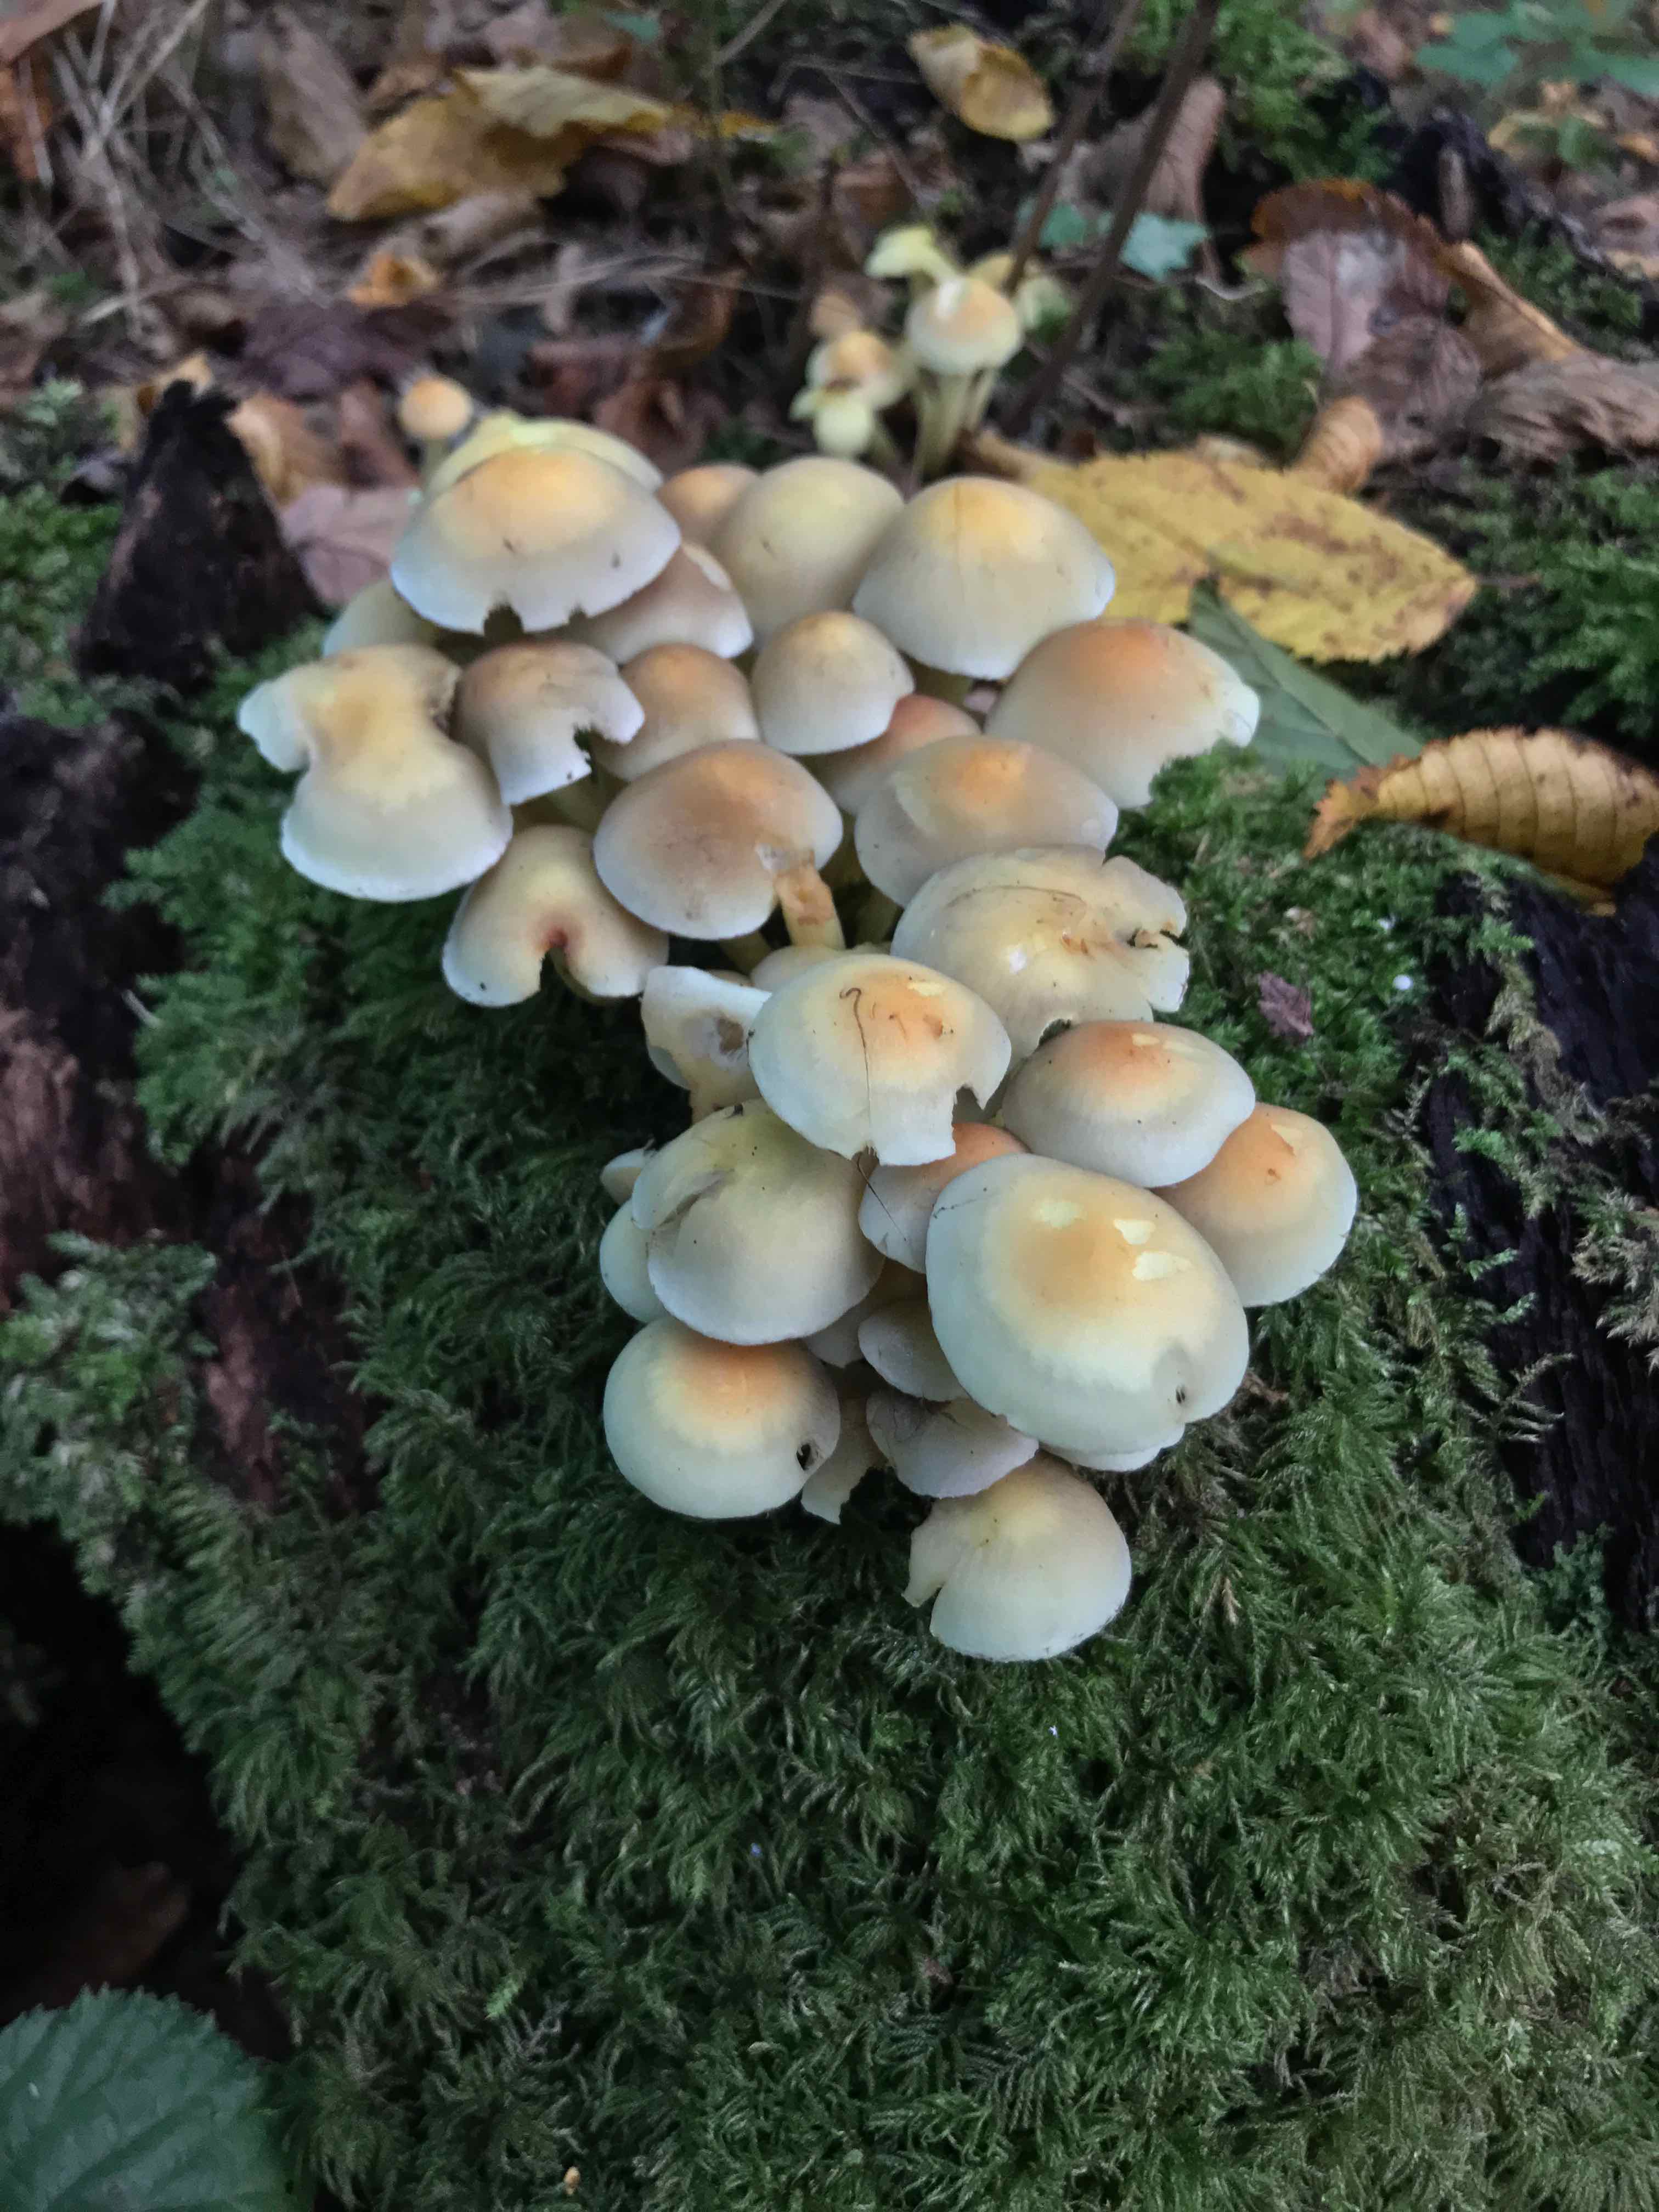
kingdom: Fungi
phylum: Basidiomycota
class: Agaricomycetes
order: Agaricales
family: Strophariaceae
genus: Hypholoma
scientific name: Hypholoma fasciculare
